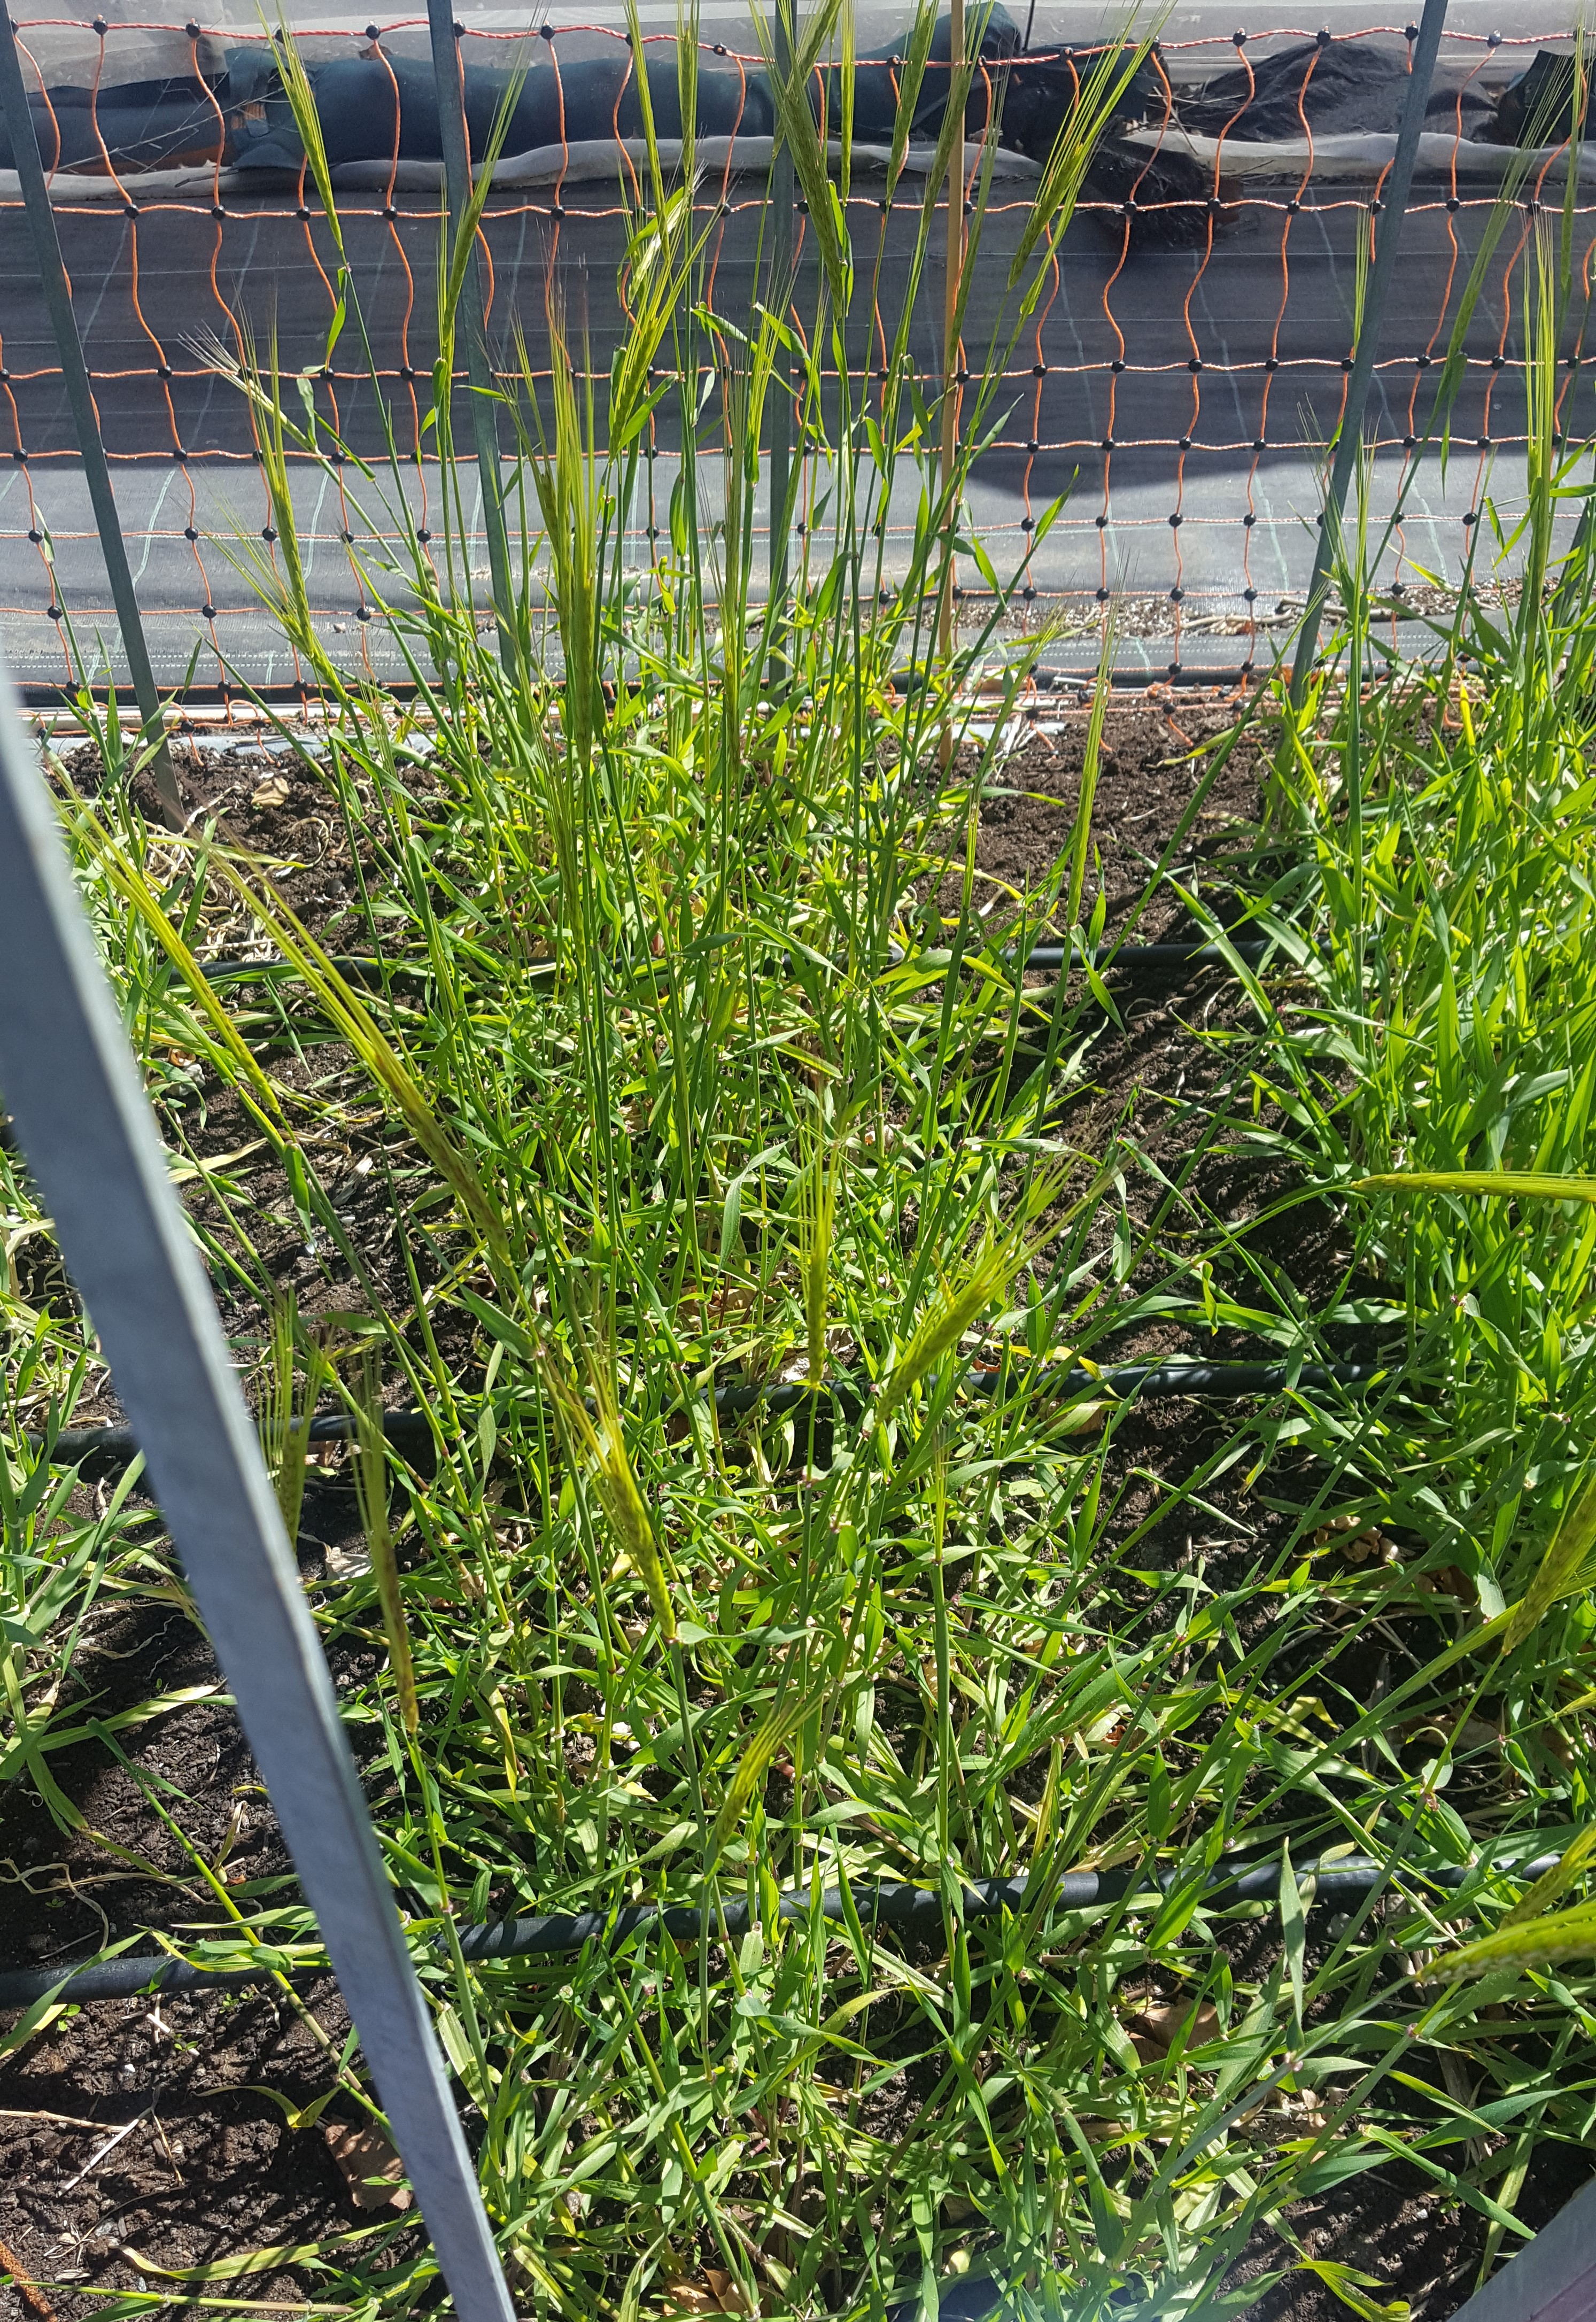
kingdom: Plantae
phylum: Tracheophyta
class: Liliopsida
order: Poales
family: Poaceae
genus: Hordeum
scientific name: Hordeum spontaneum
